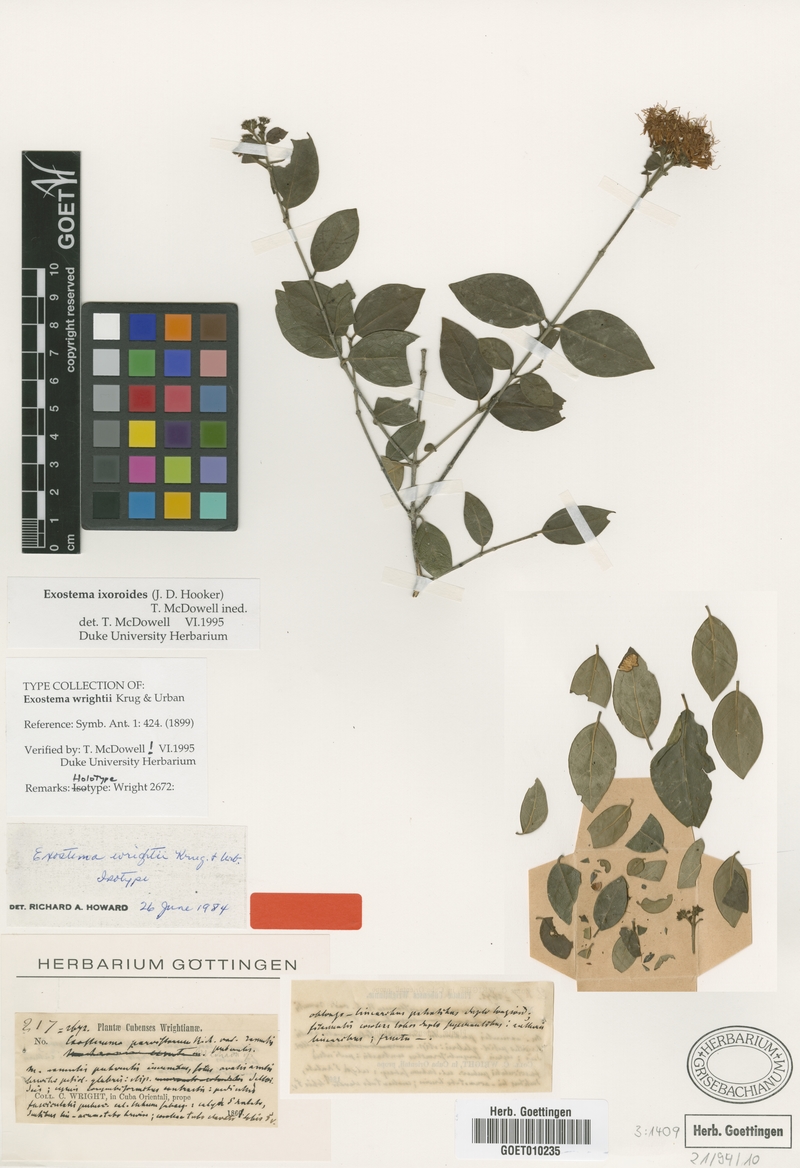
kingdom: Plantae
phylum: Tracheophyta
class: Magnoliopsida
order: Gentianales
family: Rubiaceae
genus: Solenandra
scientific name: Solenandra ixoroides
